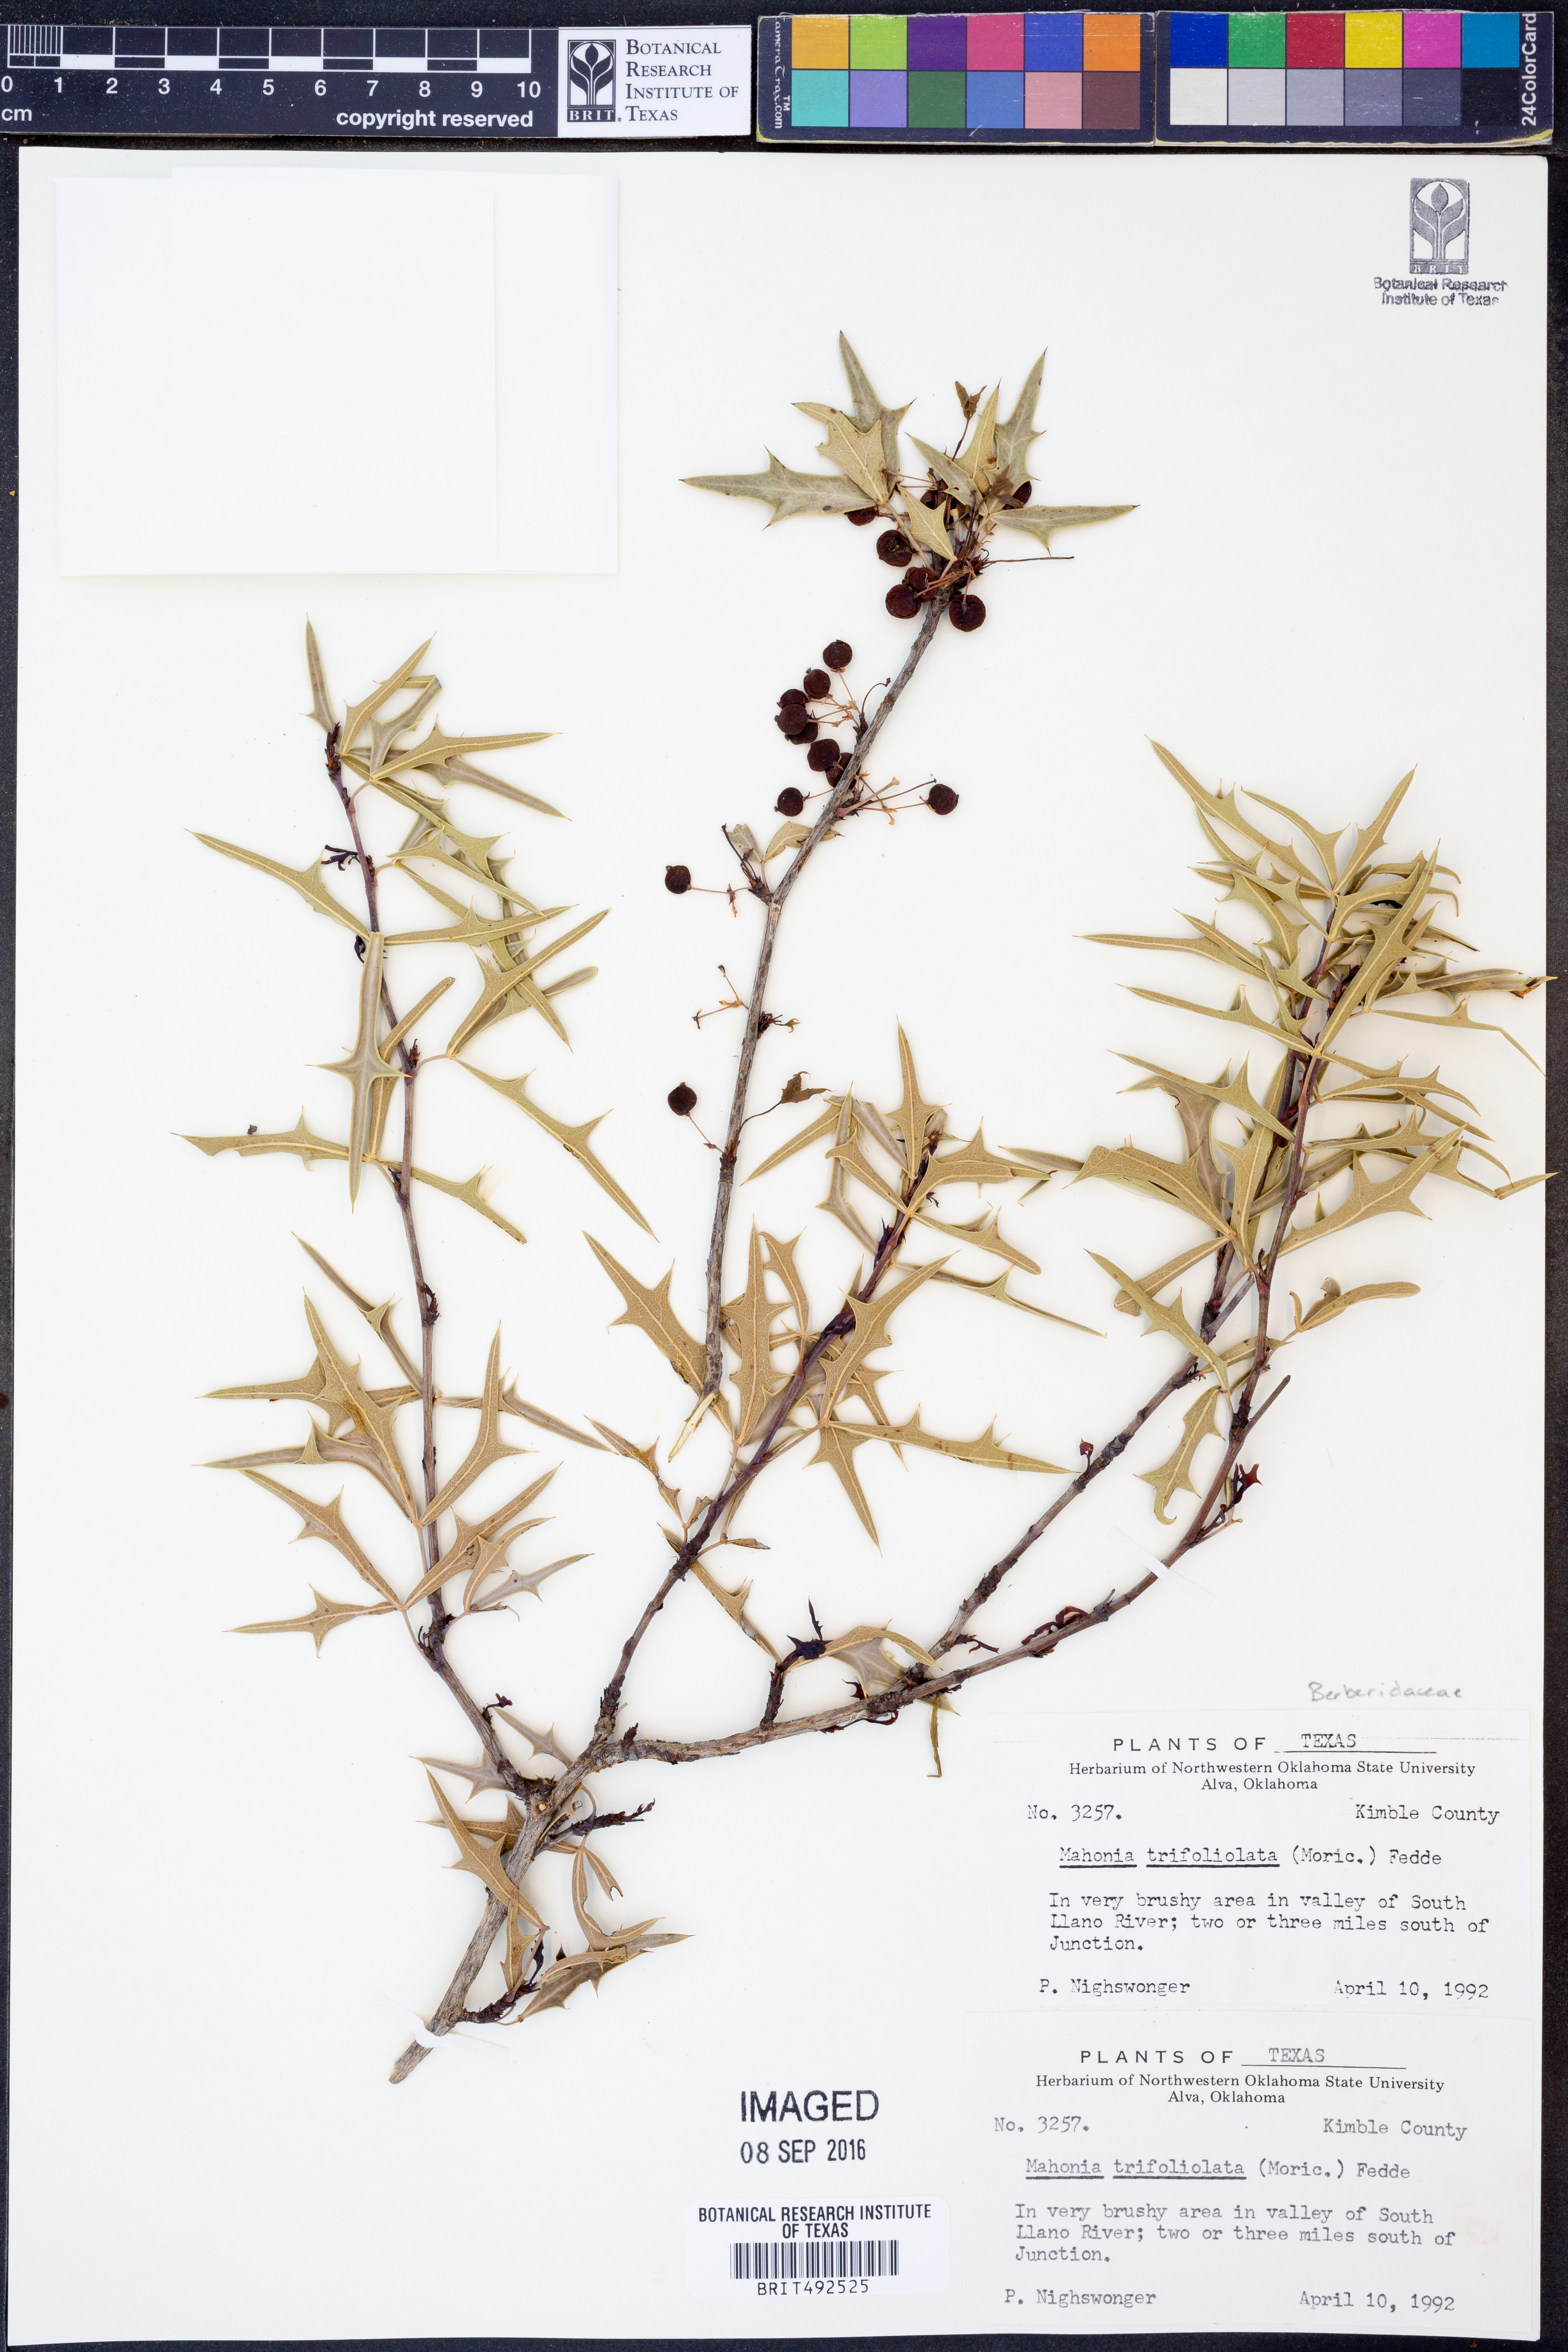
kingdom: Plantae
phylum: Tracheophyta
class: Magnoliopsida
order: Ranunculales
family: Berberidaceae
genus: Alloberberis
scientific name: Alloberberis trifoliolata
